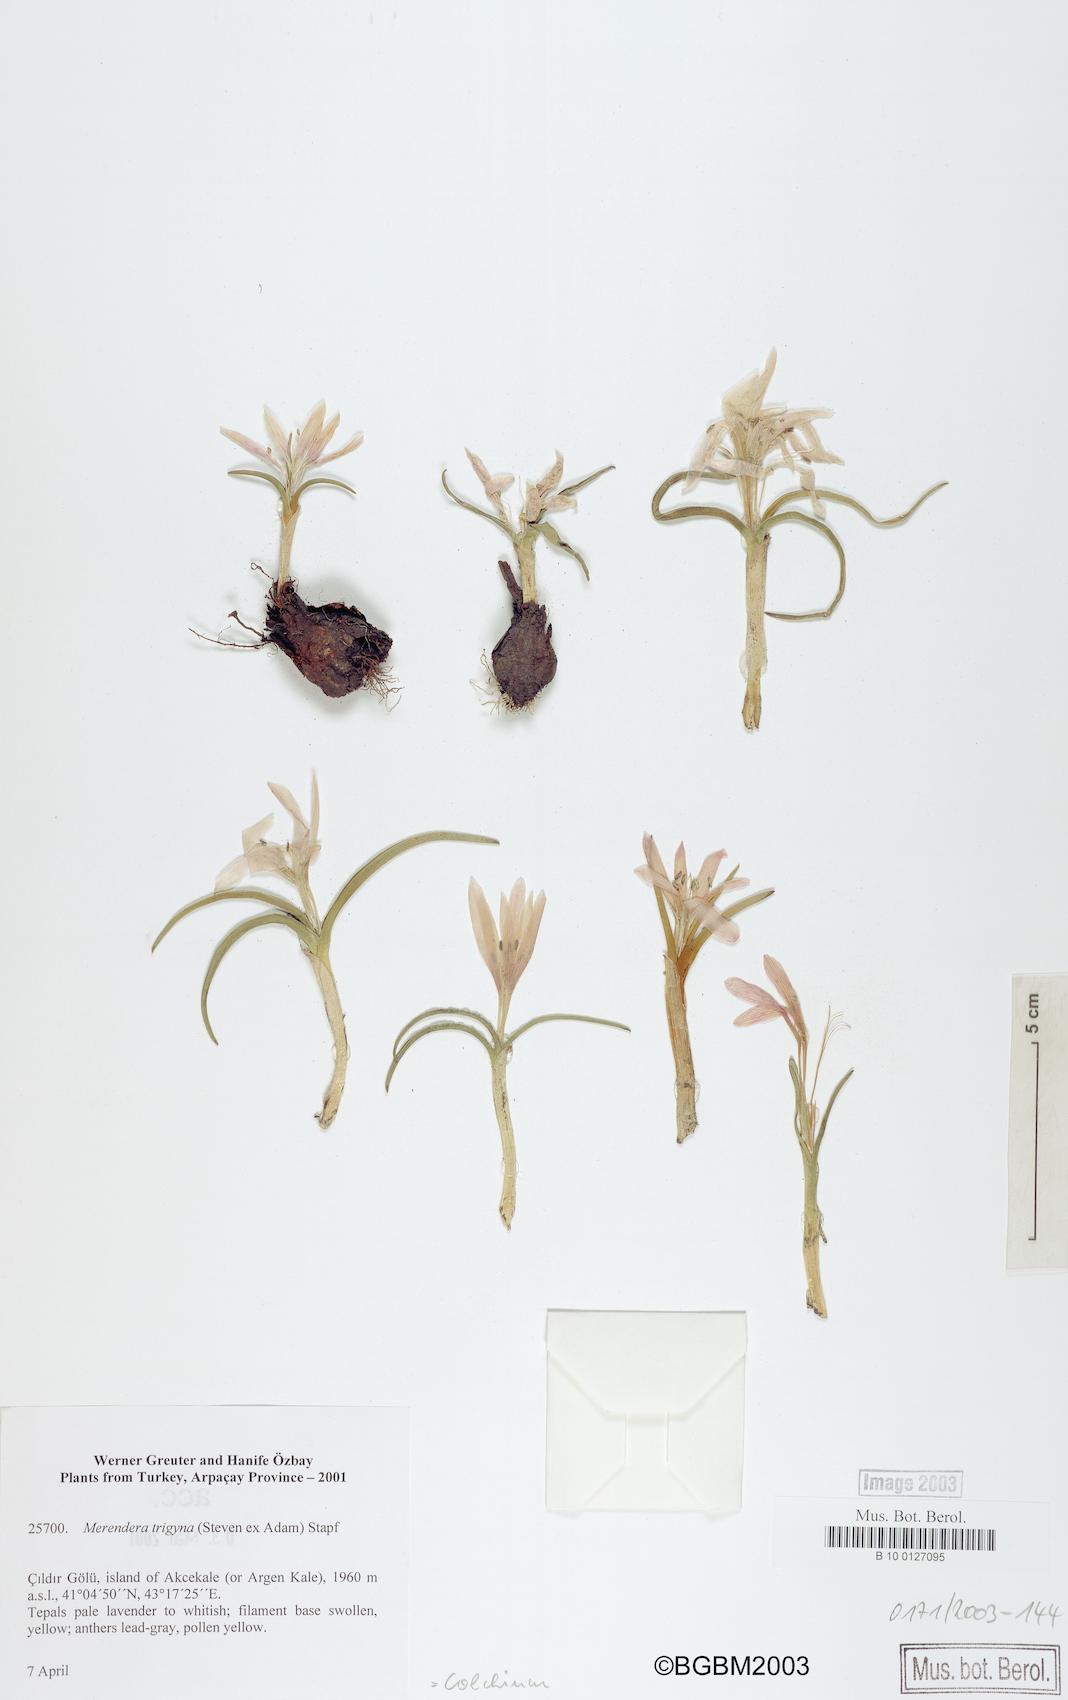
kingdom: Plantae
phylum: Tracheophyta
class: Liliopsida
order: Liliales
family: Colchicaceae
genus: Colchicum
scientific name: Colchicum
